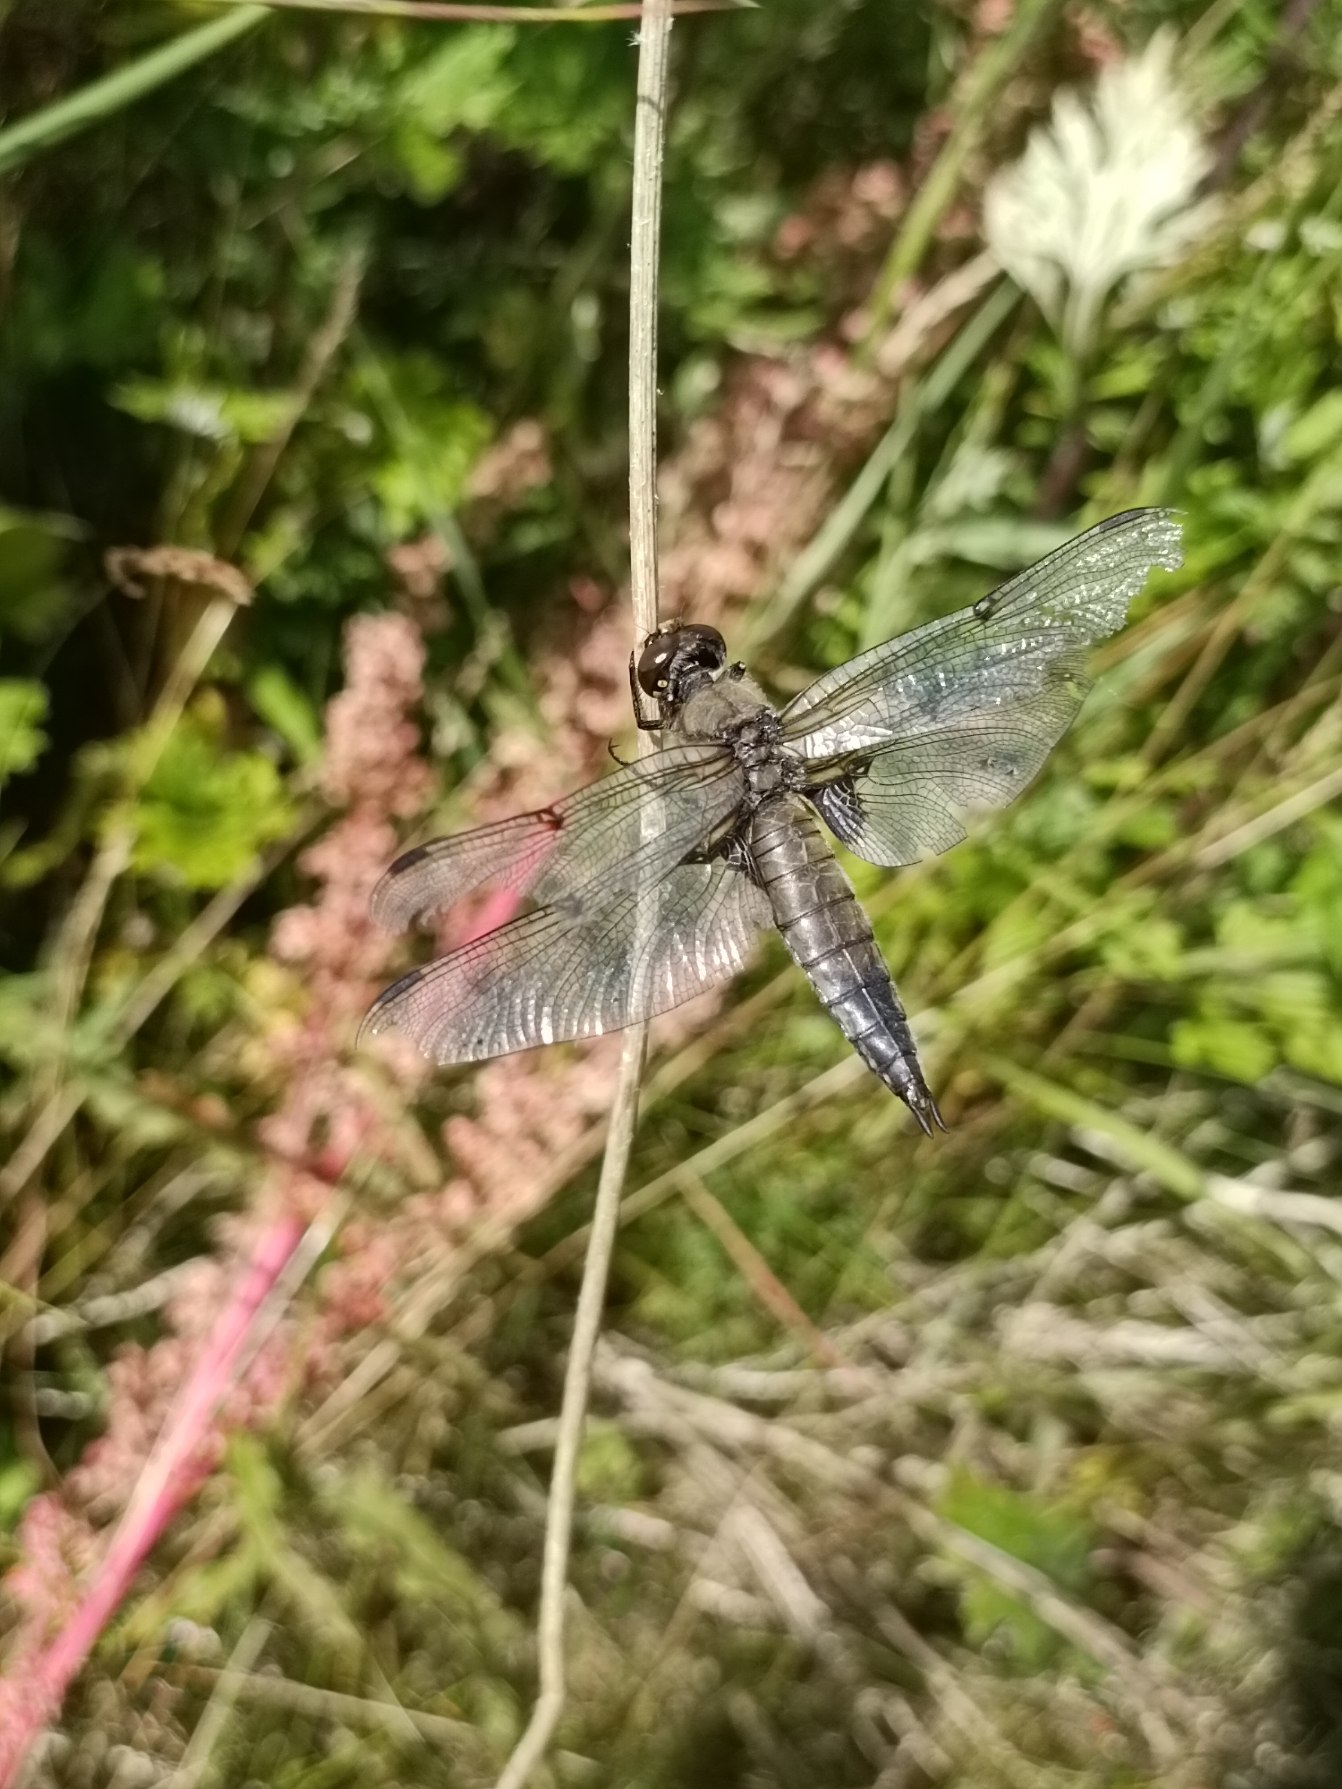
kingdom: Animalia
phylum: Arthropoda
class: Insecta
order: Odonata
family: Libellulidae
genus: Libellula
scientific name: Libellula quadrimaculata
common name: Fireplettet libel
